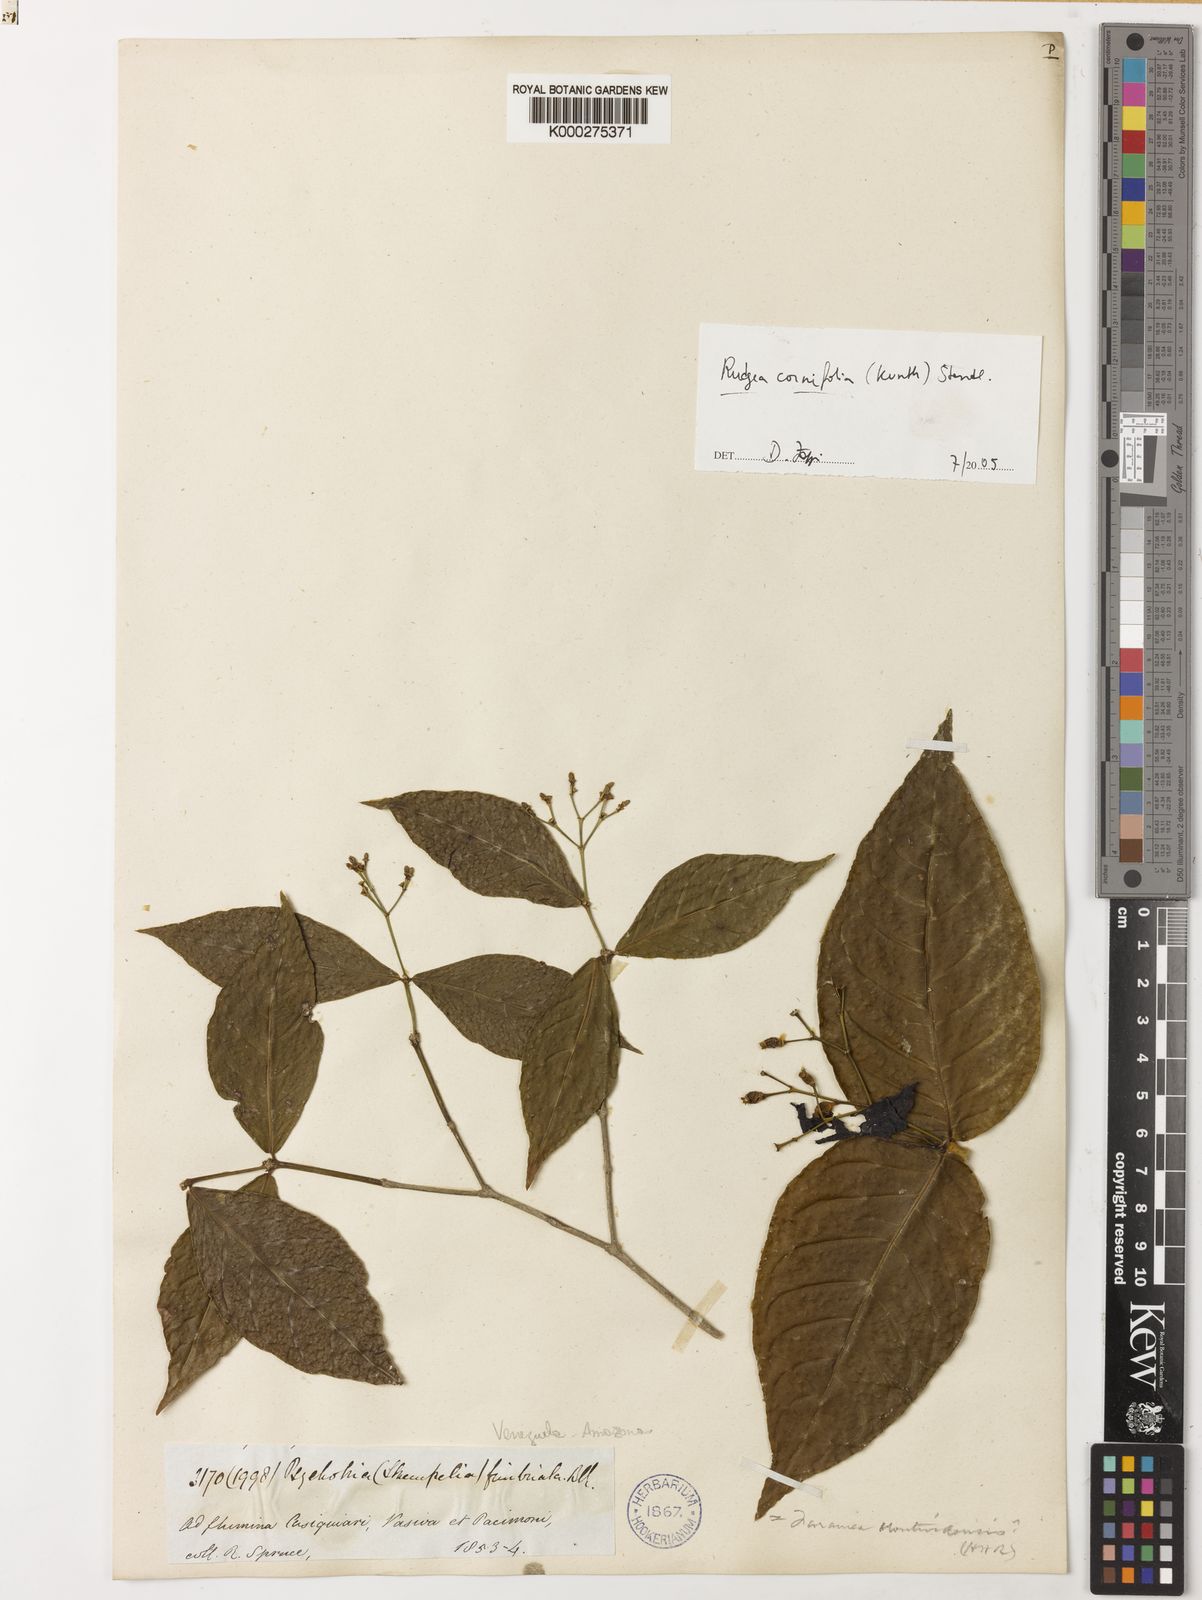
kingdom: Plantae
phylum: Tracheophyta
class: Magnoliopsida
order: Gentianales
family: Rubiaceae
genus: Rudgea
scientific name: Rudgea cornifolia
